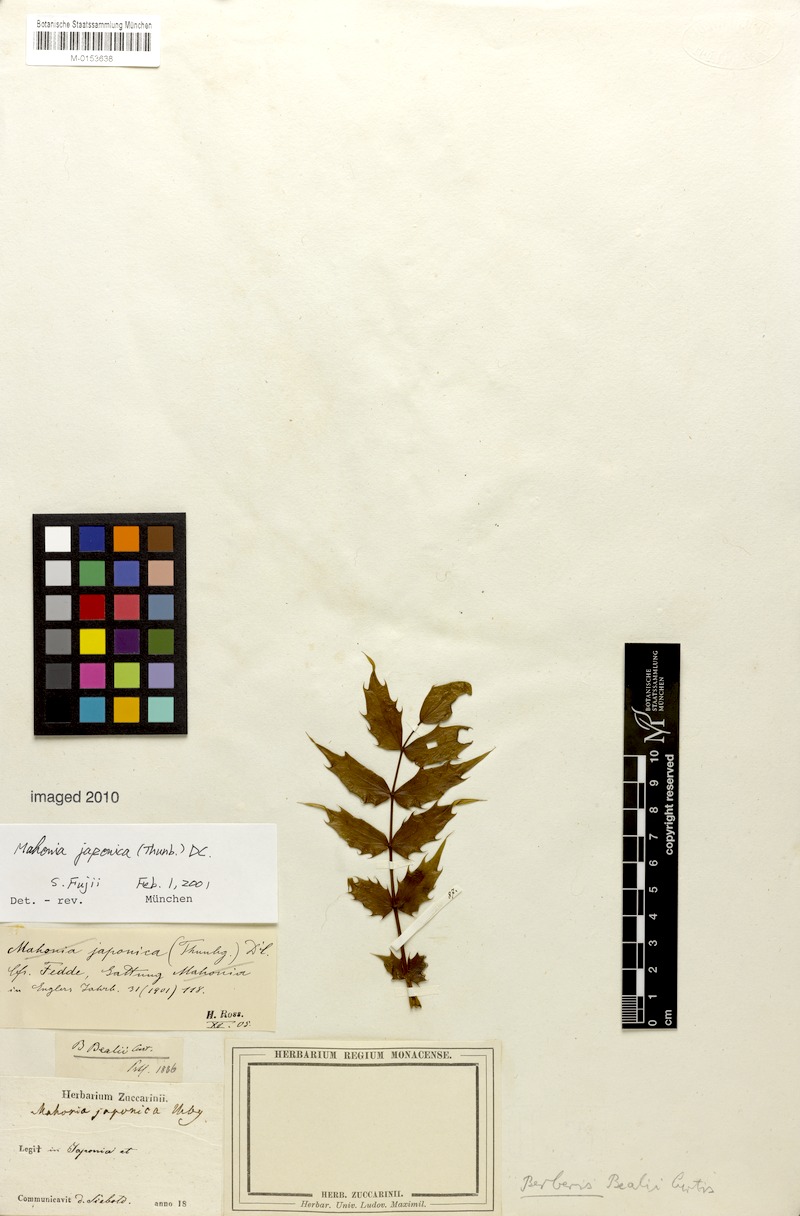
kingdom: Plantae
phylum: Tracheophyta
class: Magnoliopsida
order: Ranunculales
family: Berberidaceae
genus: Mahonia
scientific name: Mahonia japonica
